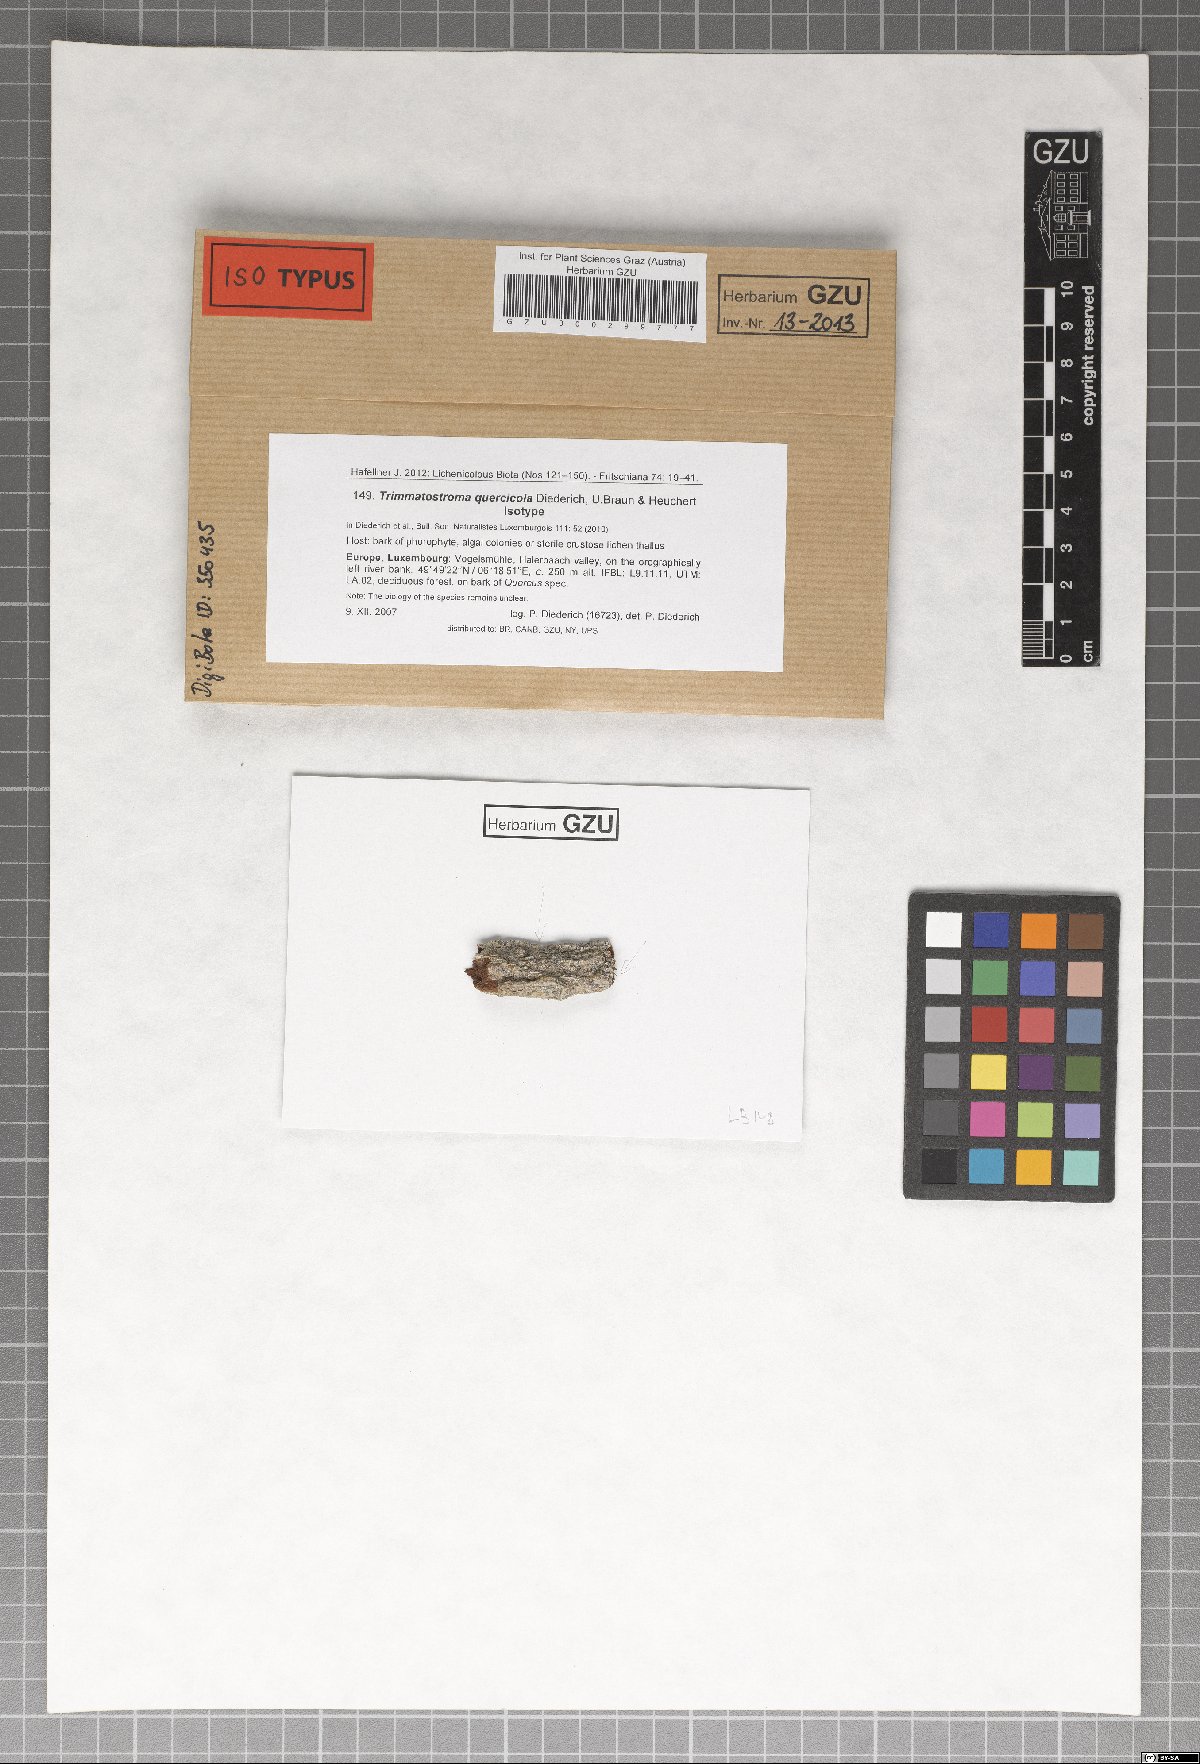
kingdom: Fungi
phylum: Ascomycota
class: Leotiomycetes
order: Helotiales
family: Mollisiaceae
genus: Trimmatostroma
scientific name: Trimmatostroma quercicola
